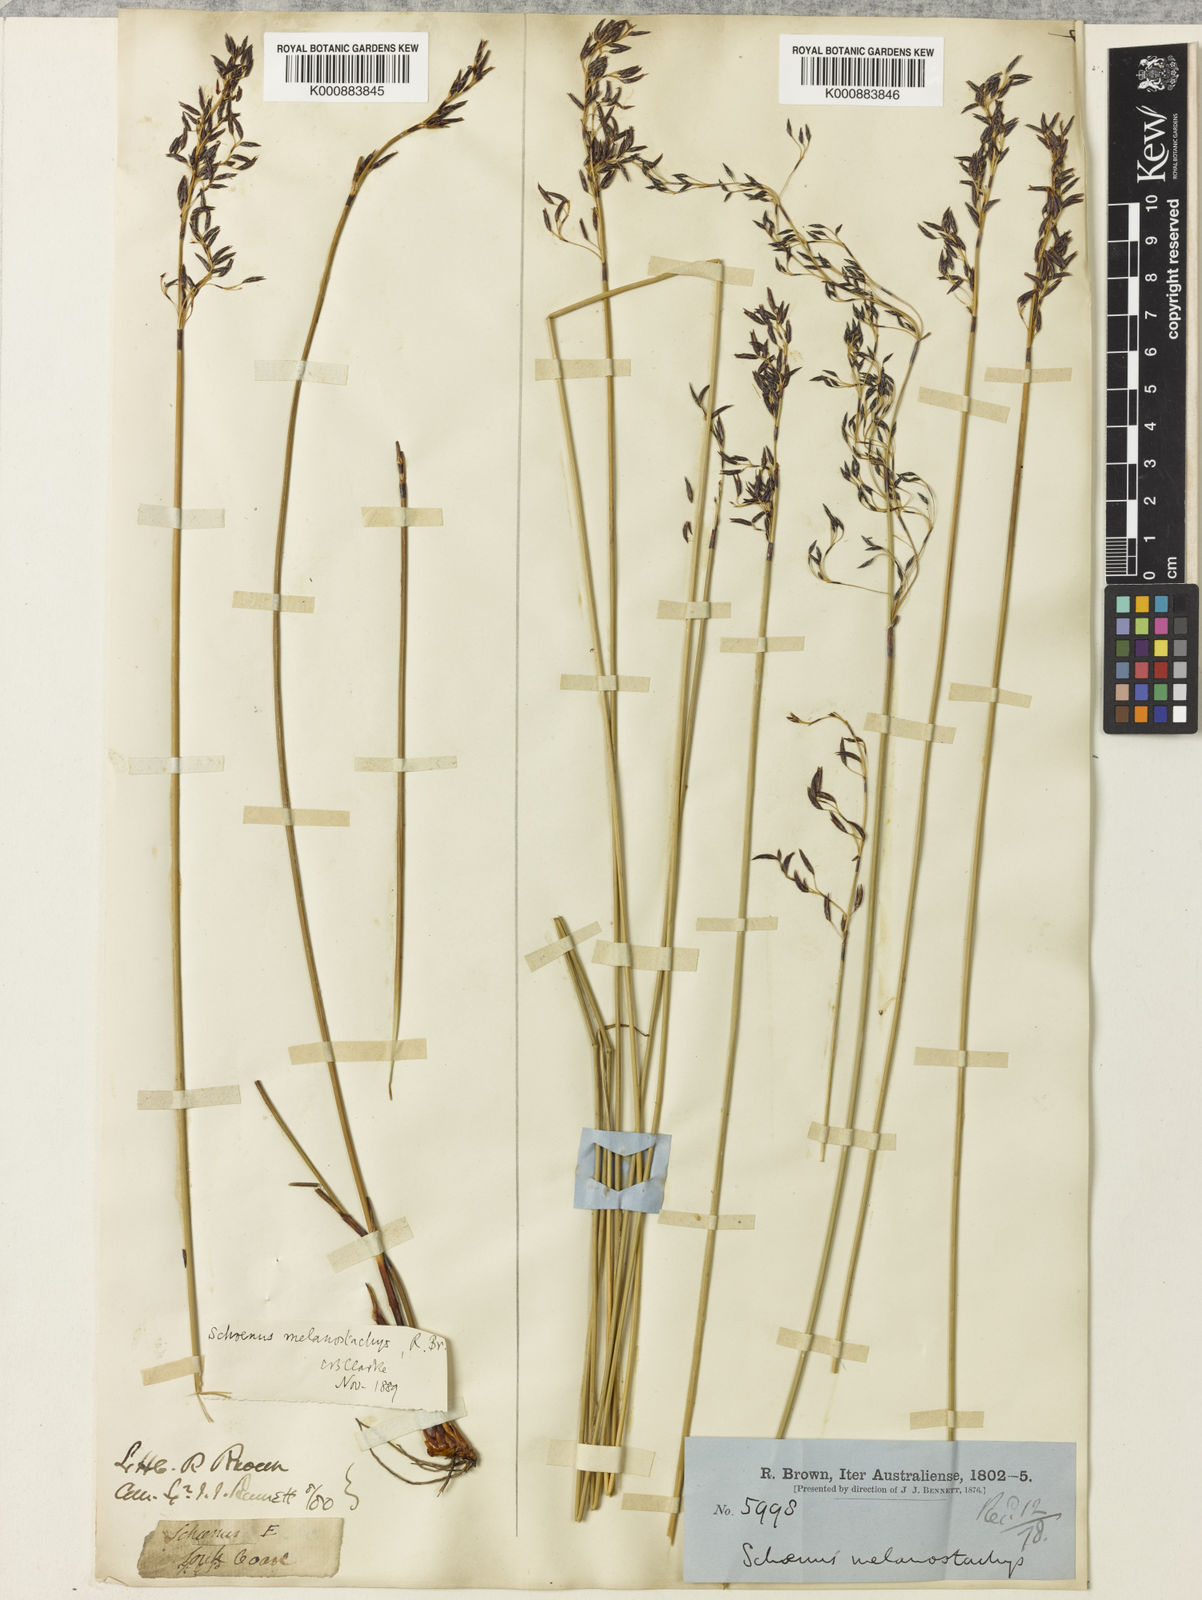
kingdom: Plantae
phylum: Tracheophyta
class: Liliopsida
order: Poales
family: Cyperaceae
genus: Schoenus
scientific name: Schoenus melanostachys
